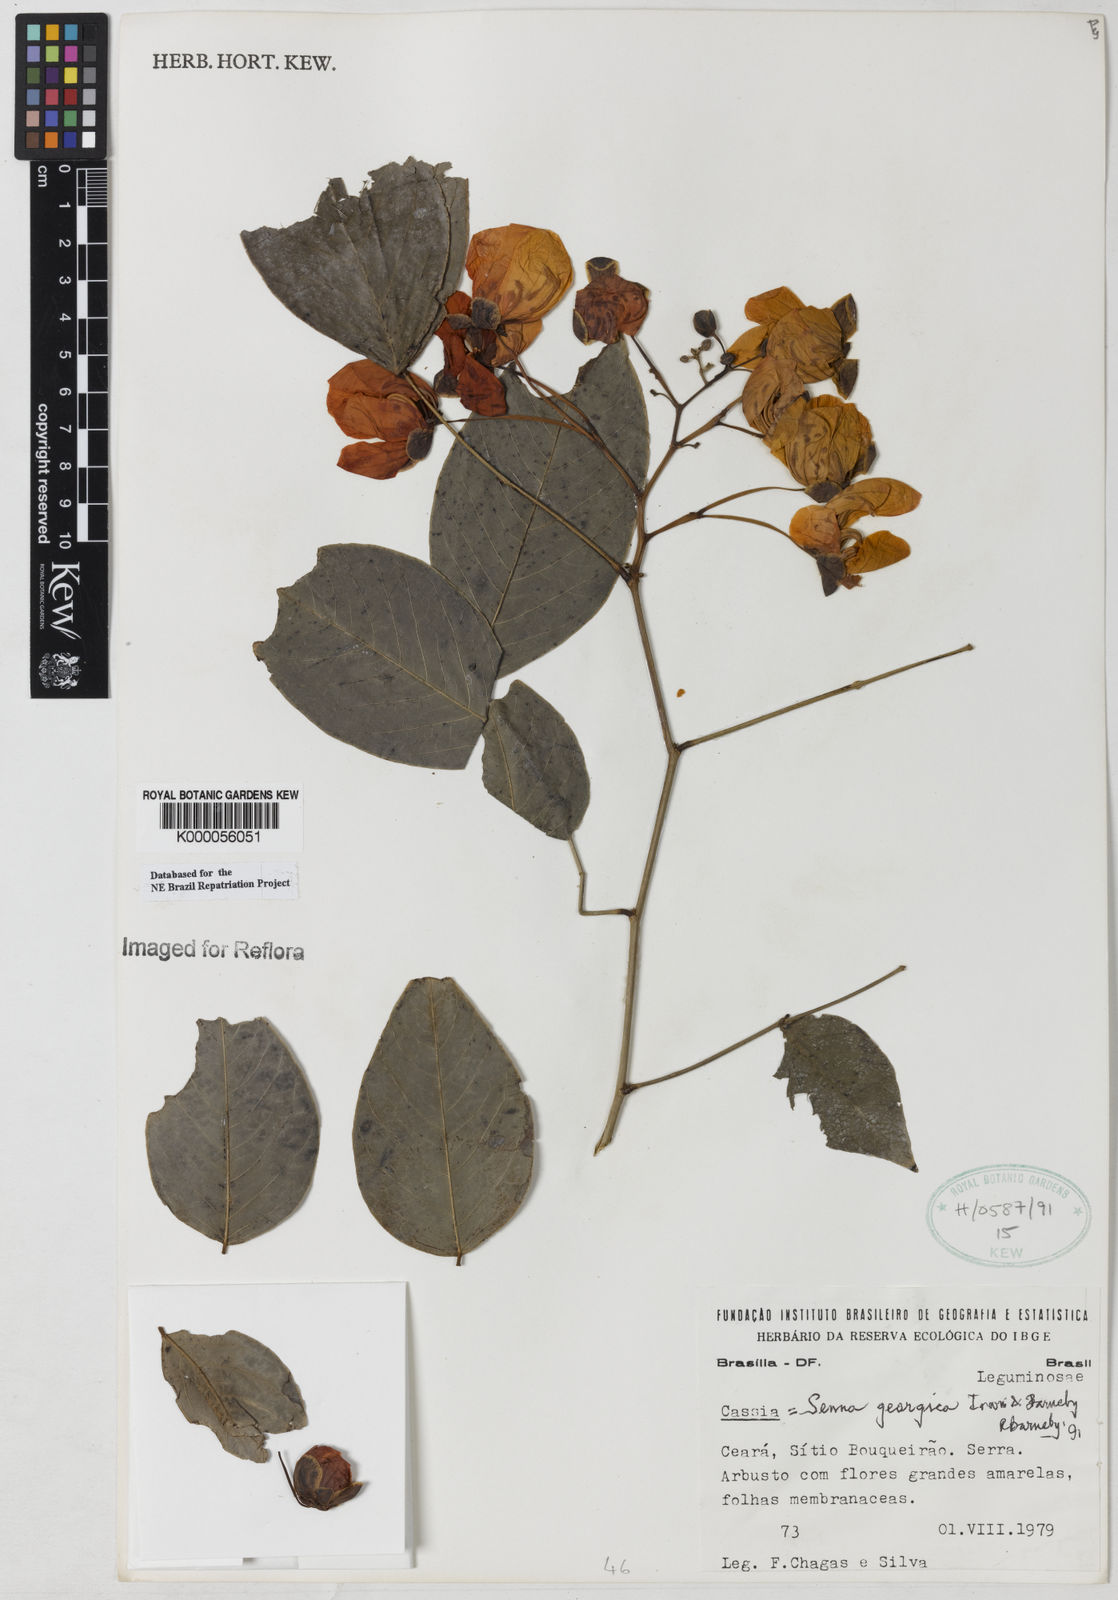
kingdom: Plantae
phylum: Tracheophyta
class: Magnoliopsida
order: Fabales
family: Fabaceae
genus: Senna
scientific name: Senna georgica
